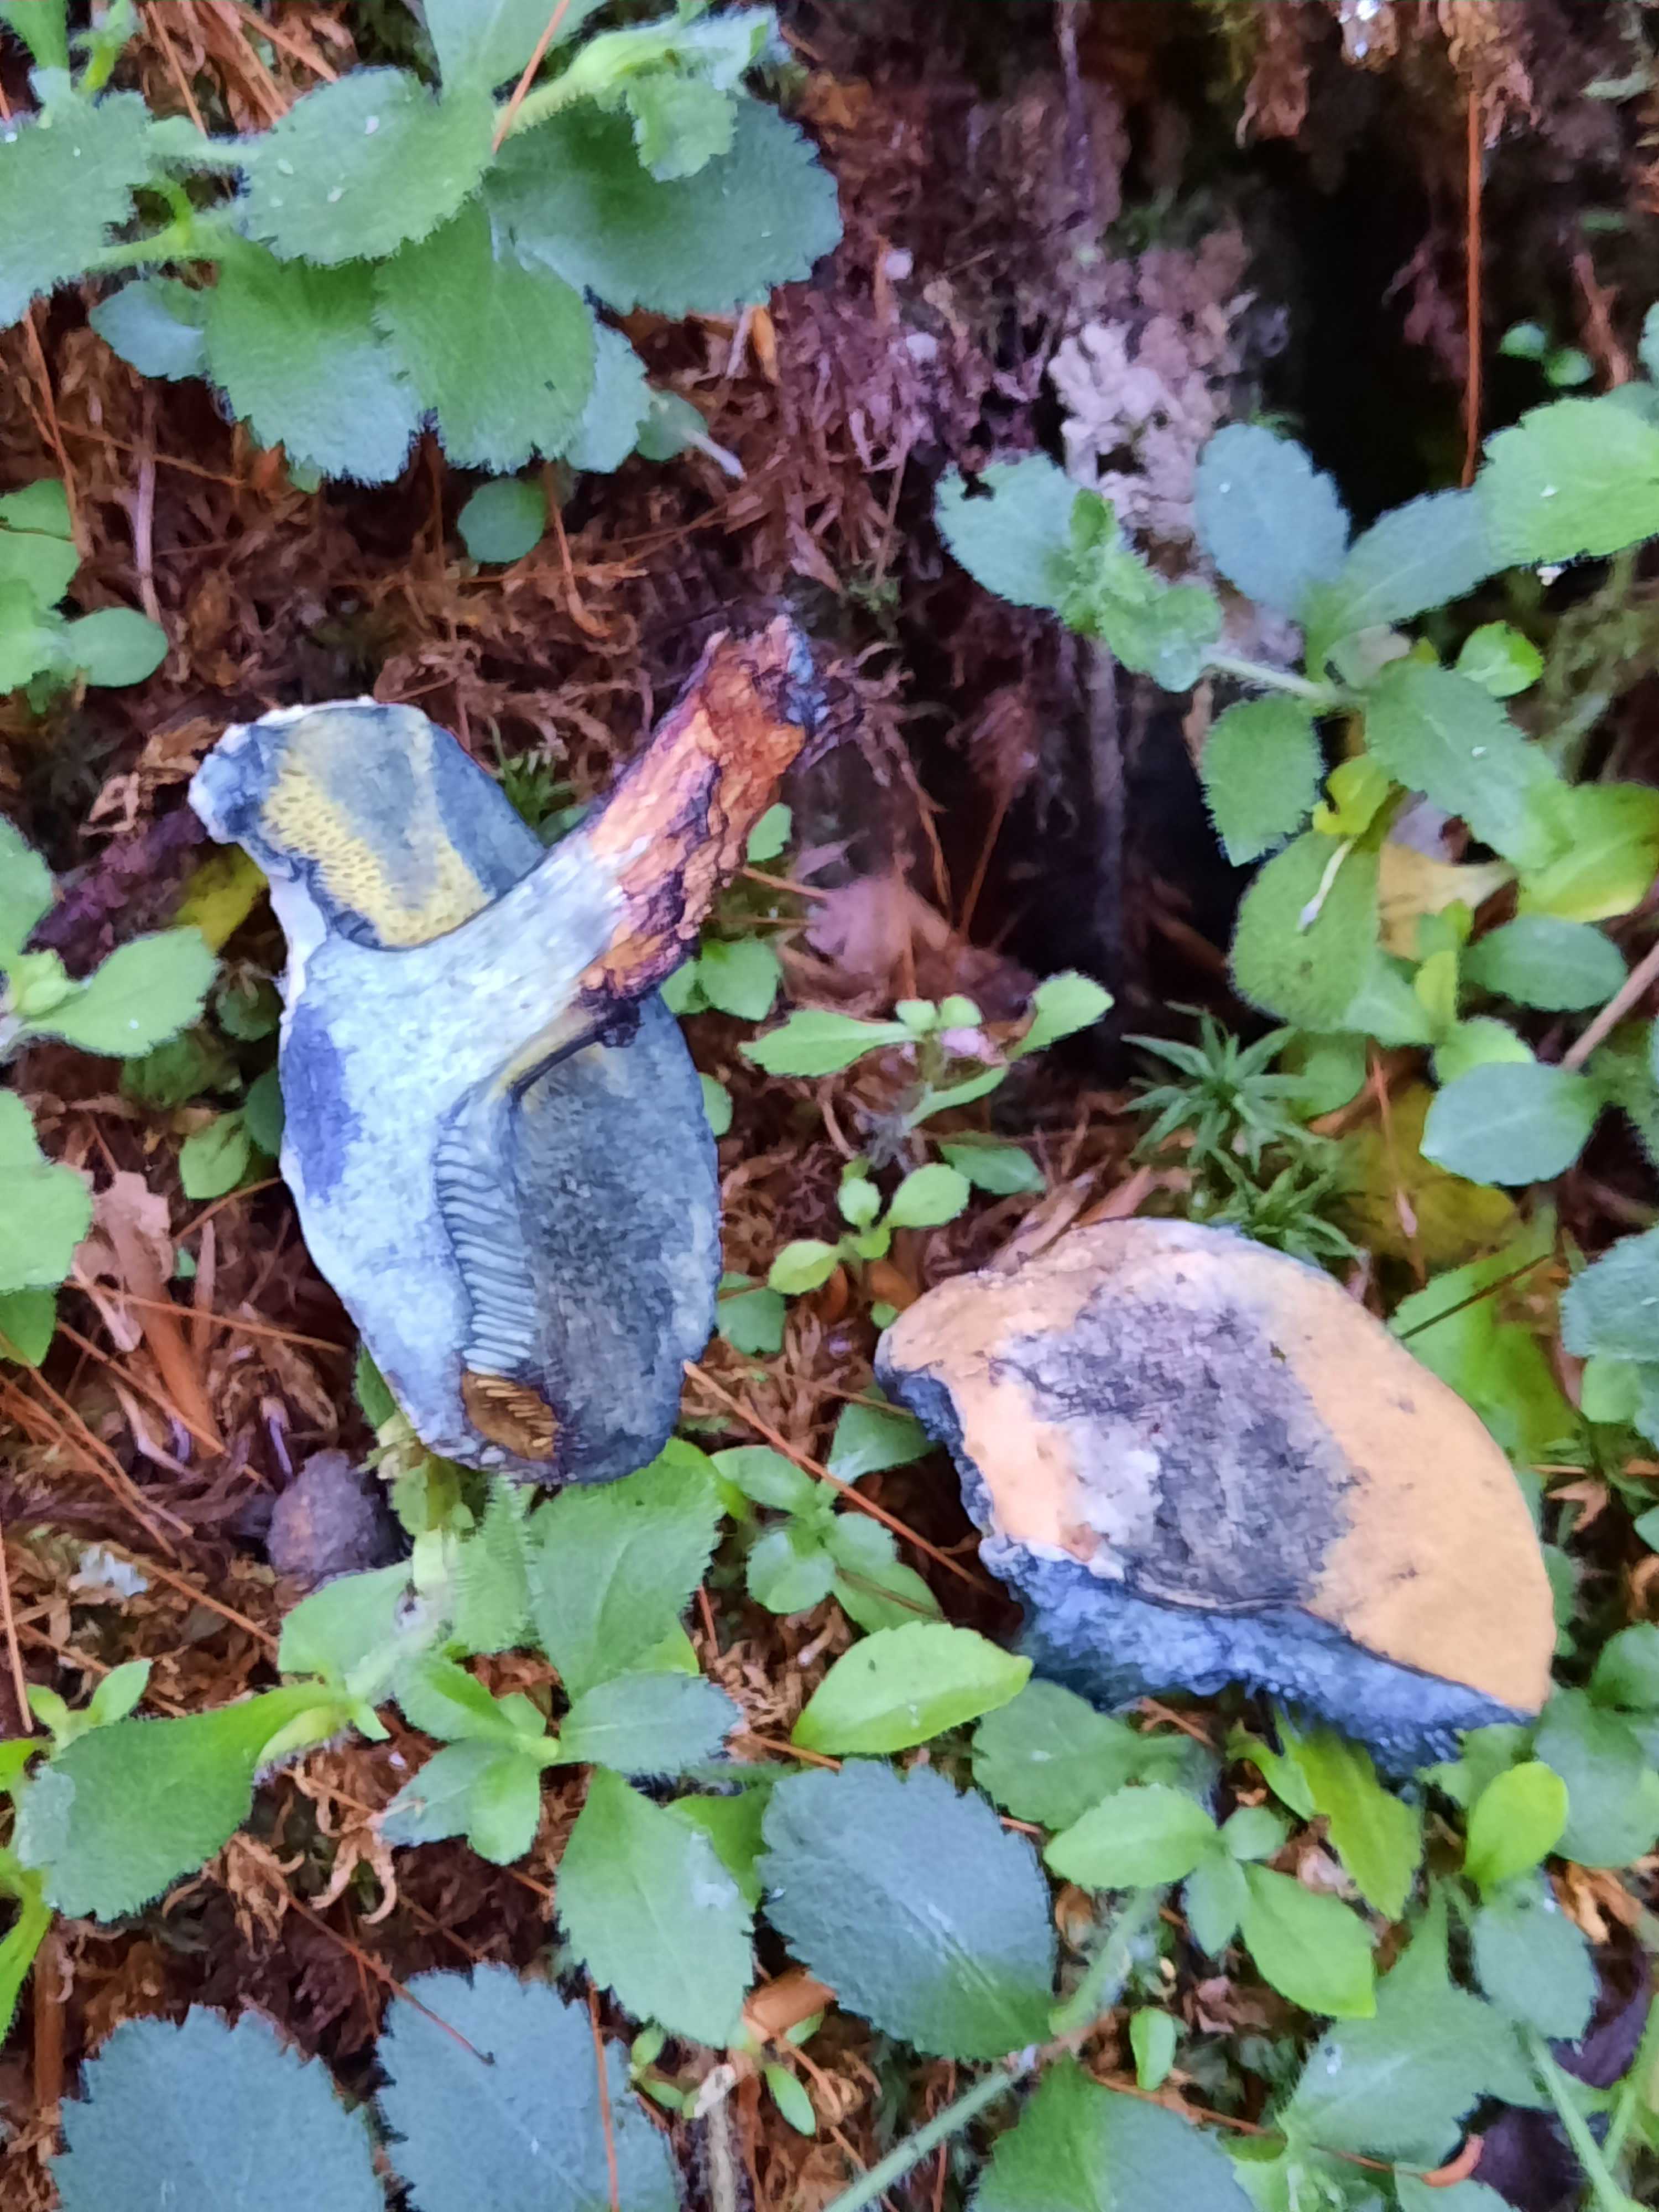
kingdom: Fungi
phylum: Basidiomycota
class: Agaricomycetes
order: Boletales
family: Boletaceae
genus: Cyanoboletus
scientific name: Cyanoboletus pulverulentus
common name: sortblånende rørhat
